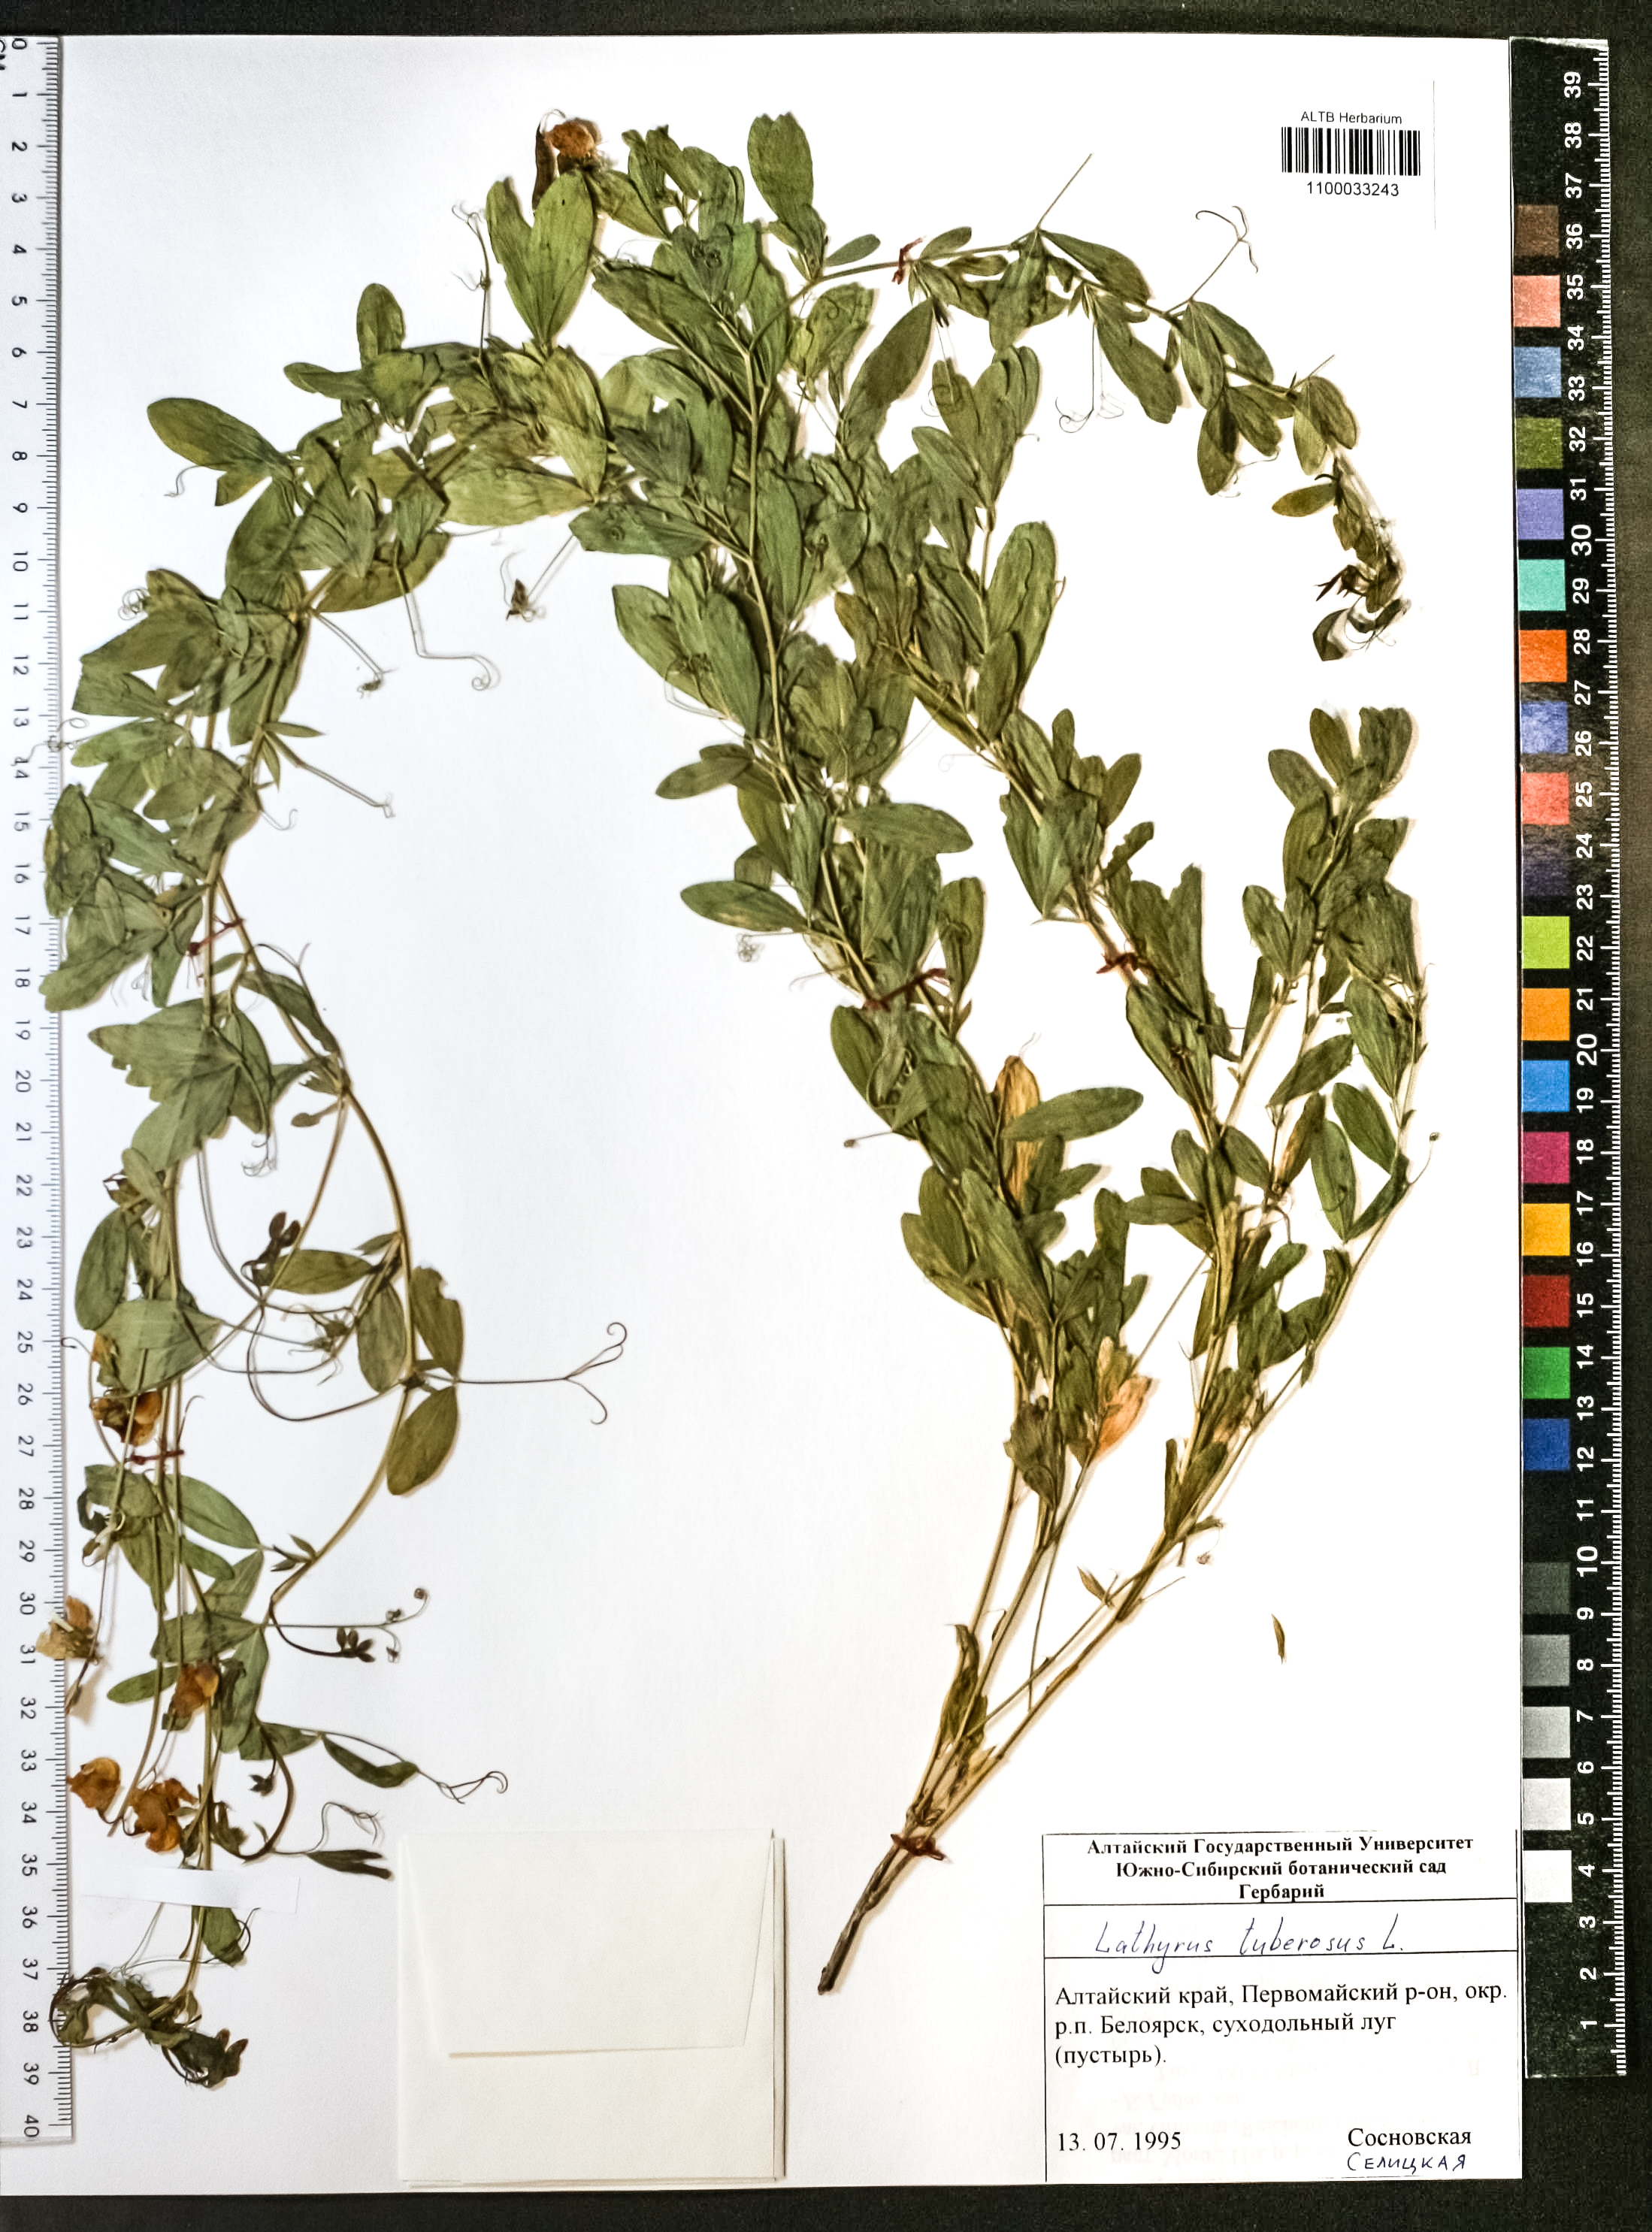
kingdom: Plantae
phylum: Tracheophyta
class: Magnoliopsida
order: Fabales
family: Fabaceae
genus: Lathyrus
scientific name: Lathyrus tuberosus
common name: Tuberous pea
